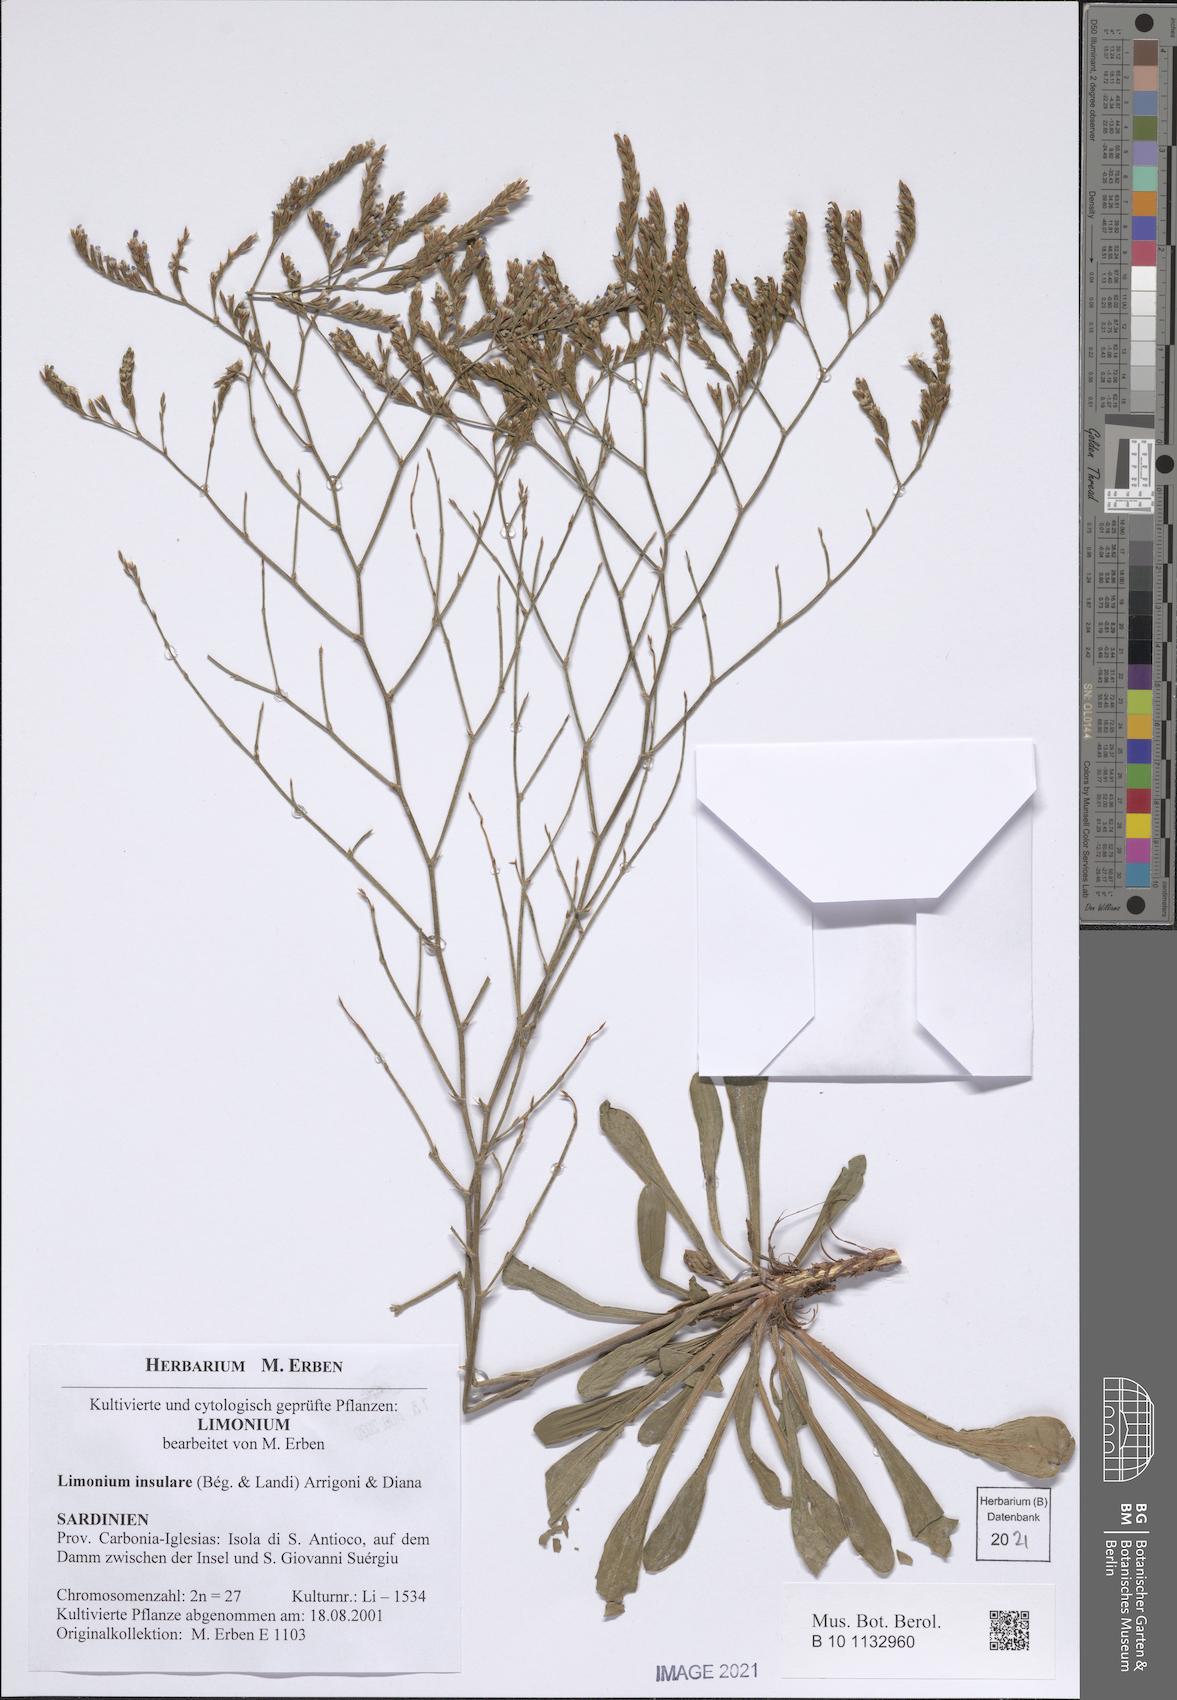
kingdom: Plantae
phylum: Tracheophyta
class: Magnoliopsida
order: Caryophyllales
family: Plumbaginaceae
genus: Limonium
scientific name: Limonium insulare
